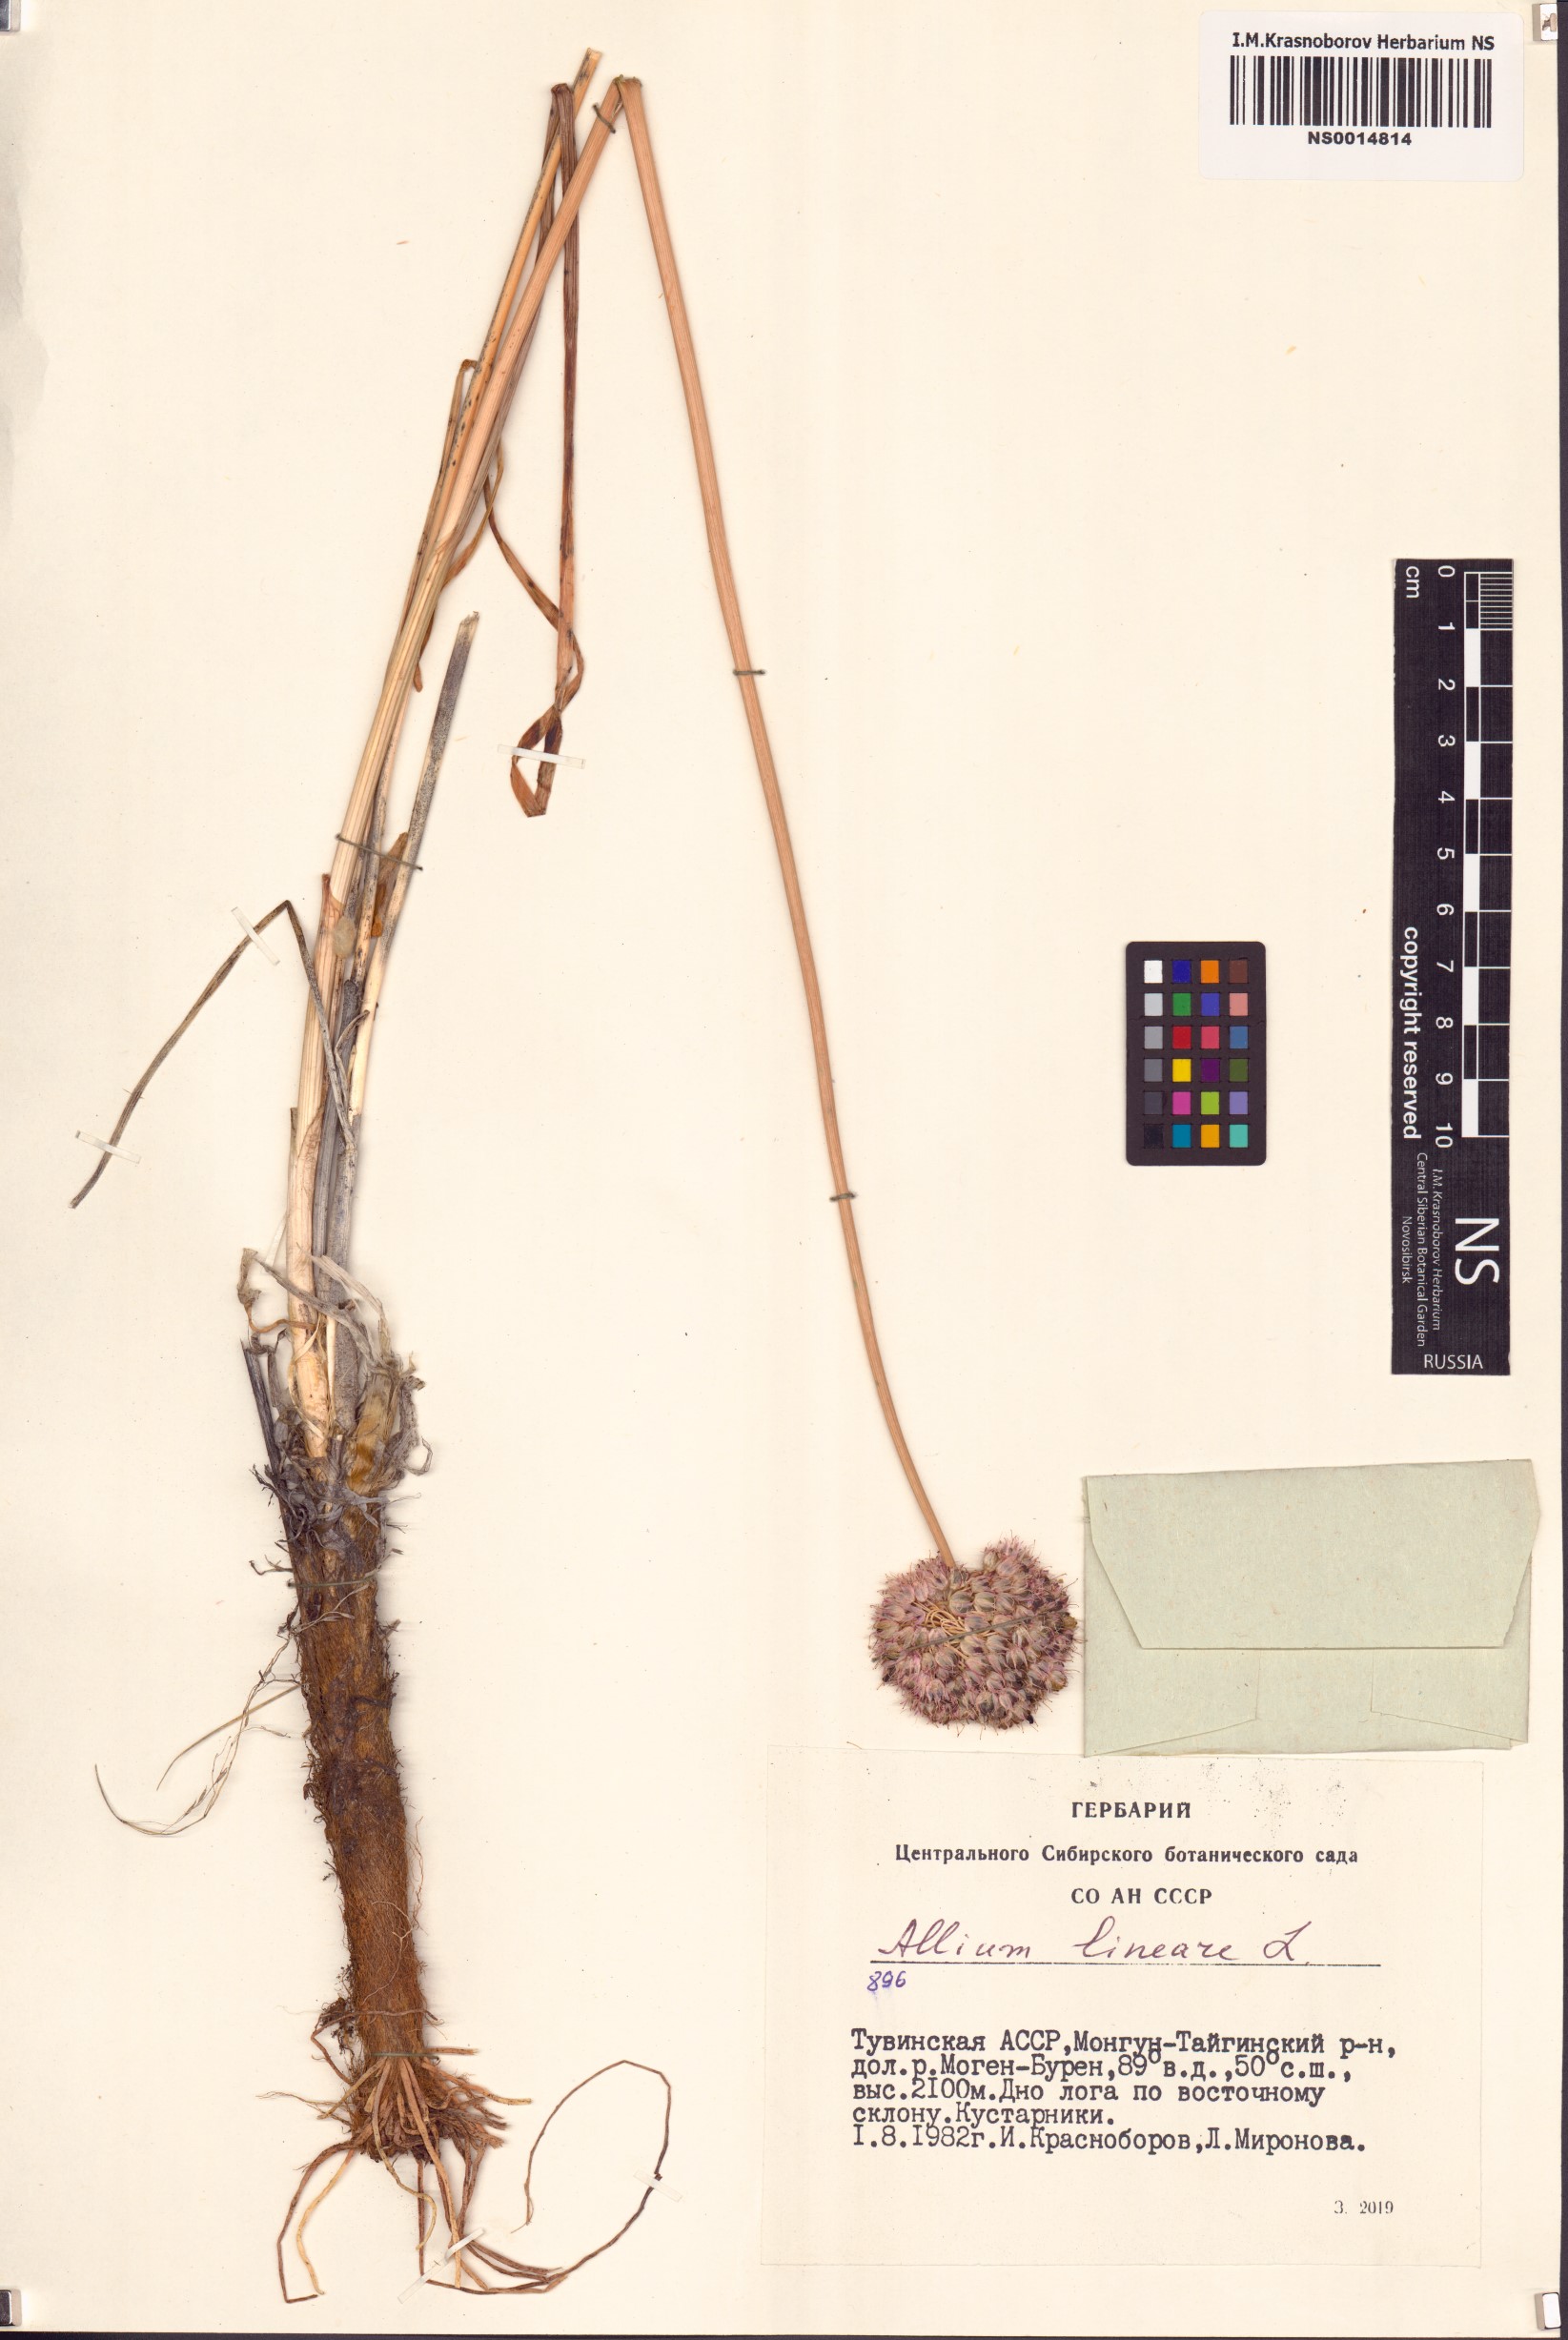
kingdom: Plantae
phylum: Tracheophyta
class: Liliopsida
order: Asparagales
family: Amaryllidaceae
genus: Allium
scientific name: Allium lineare
